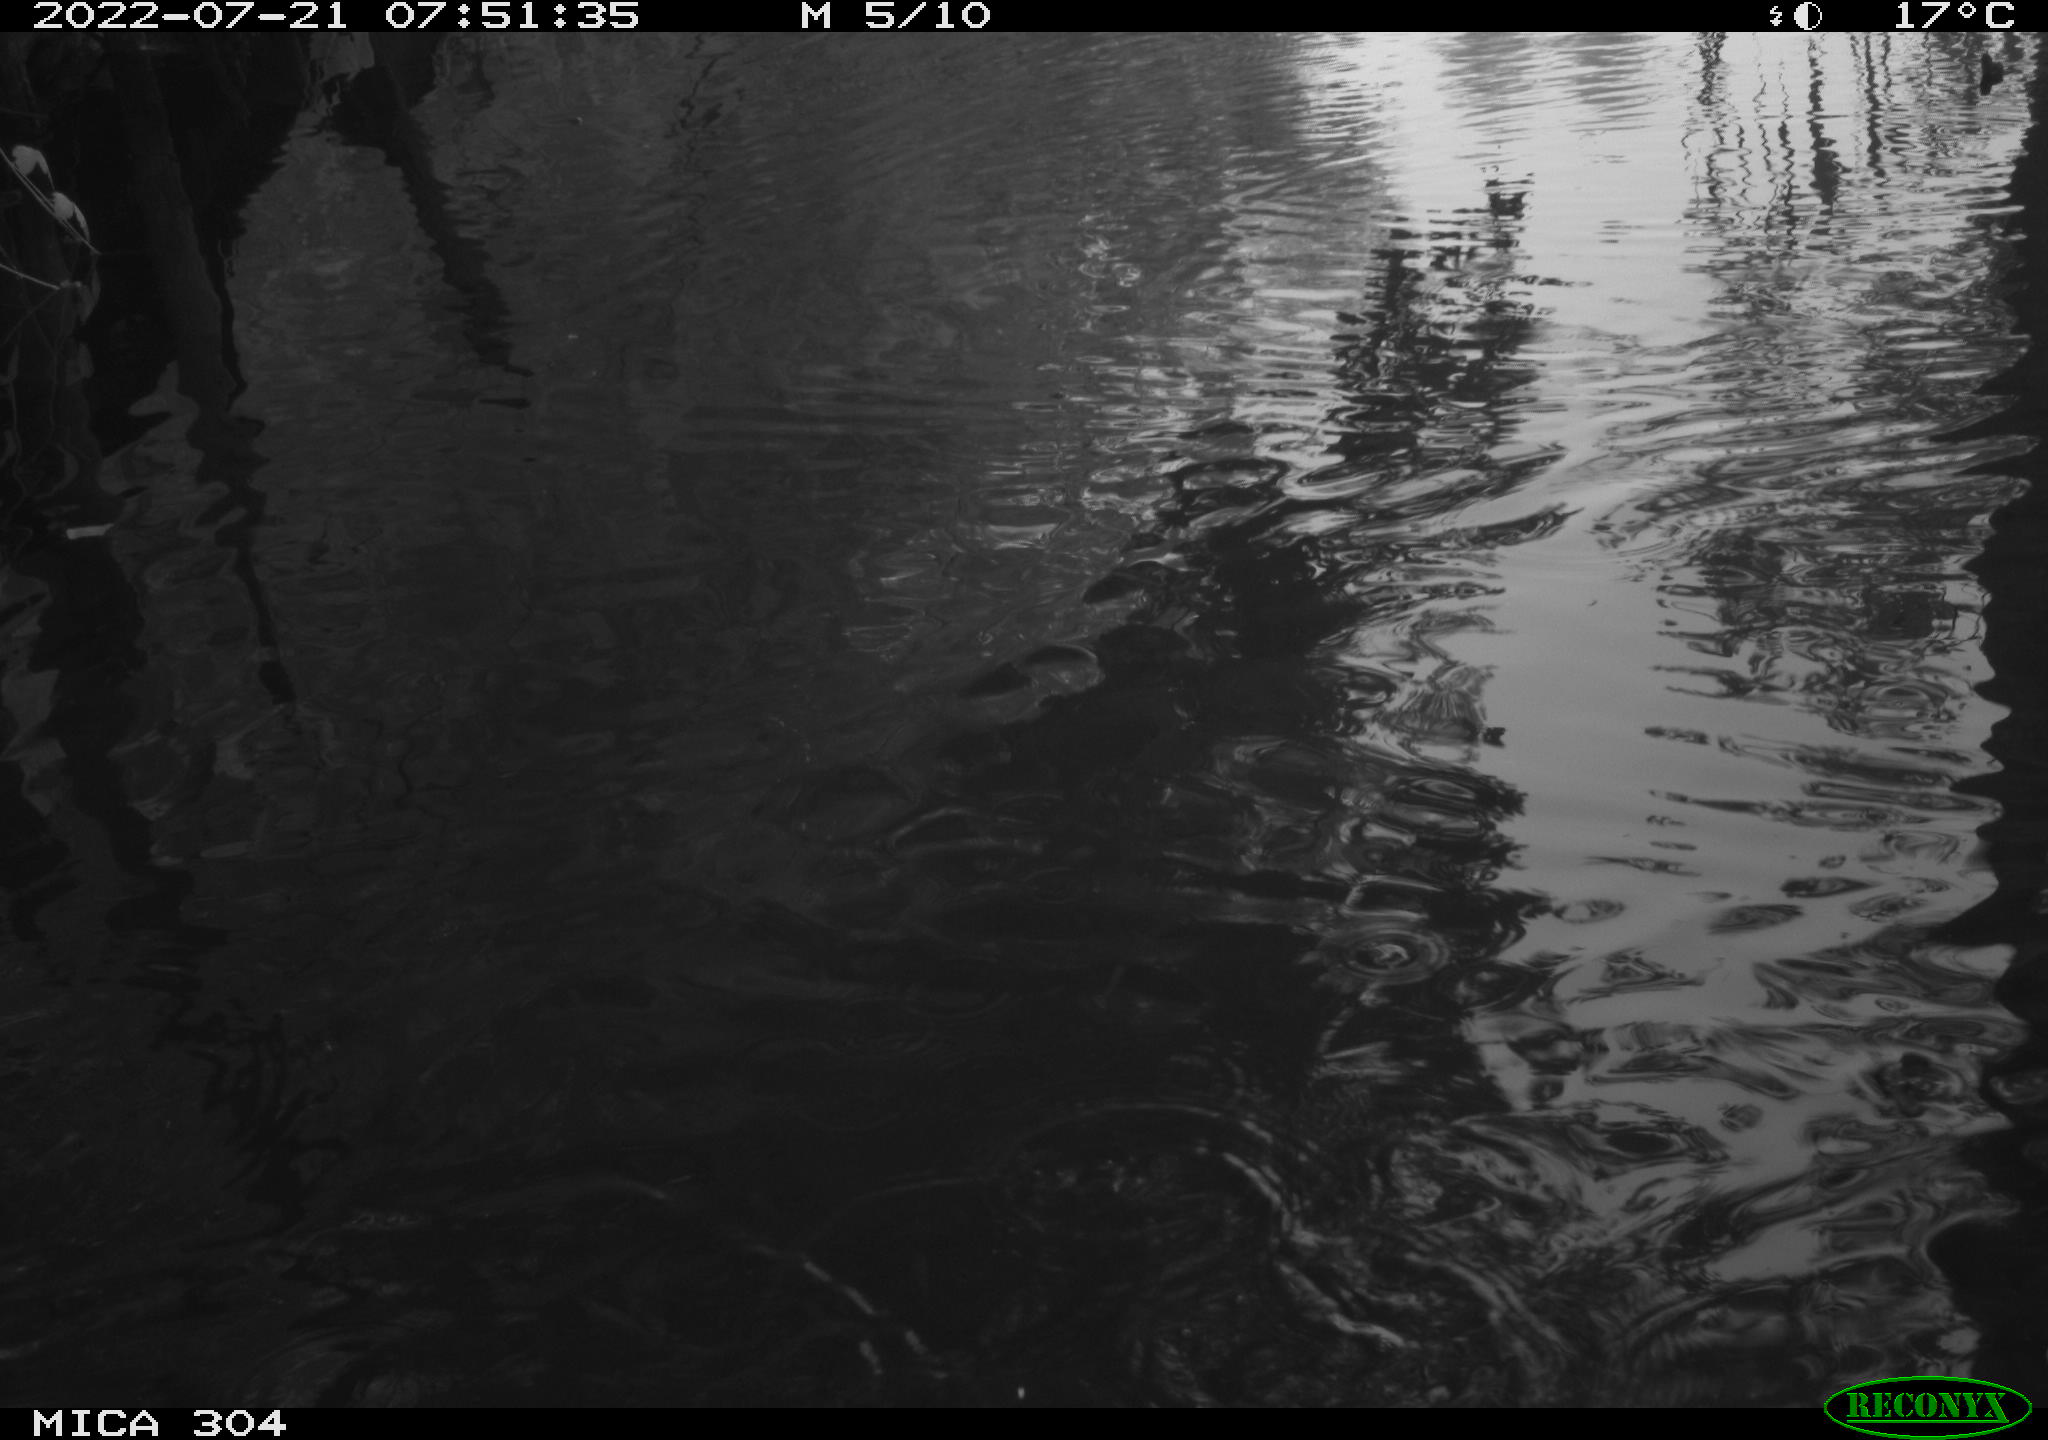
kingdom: Animalia
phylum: Chordata
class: Aves
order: Gruiformes
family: Rallidae
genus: Fulica
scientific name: Fulica atra
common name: Eurasian coot
